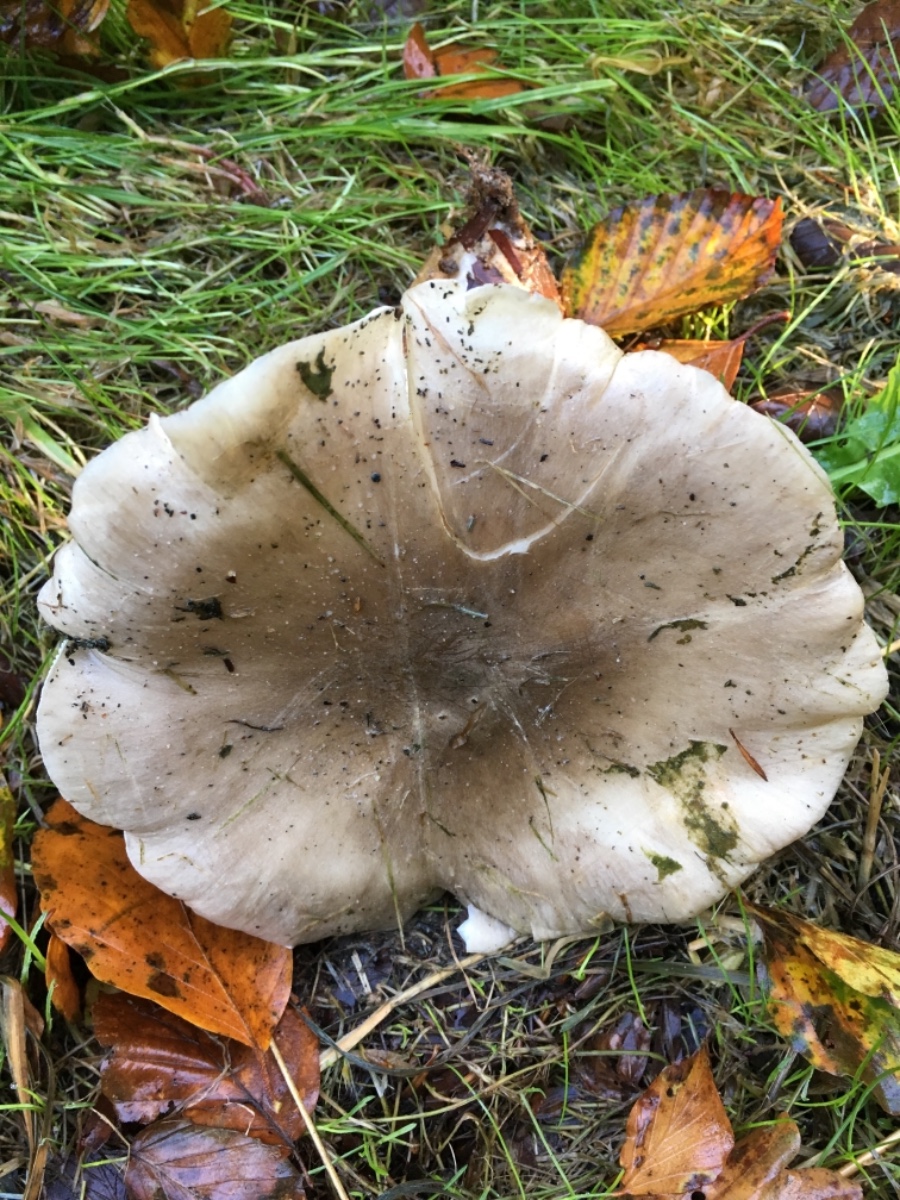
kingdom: Fungi
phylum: Basidiomycota
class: Agaricomycetes
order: Agaricales
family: Tricholomataceae
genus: Clitocybe
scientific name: Clitocybe nebularis
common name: tåge-tragthat
